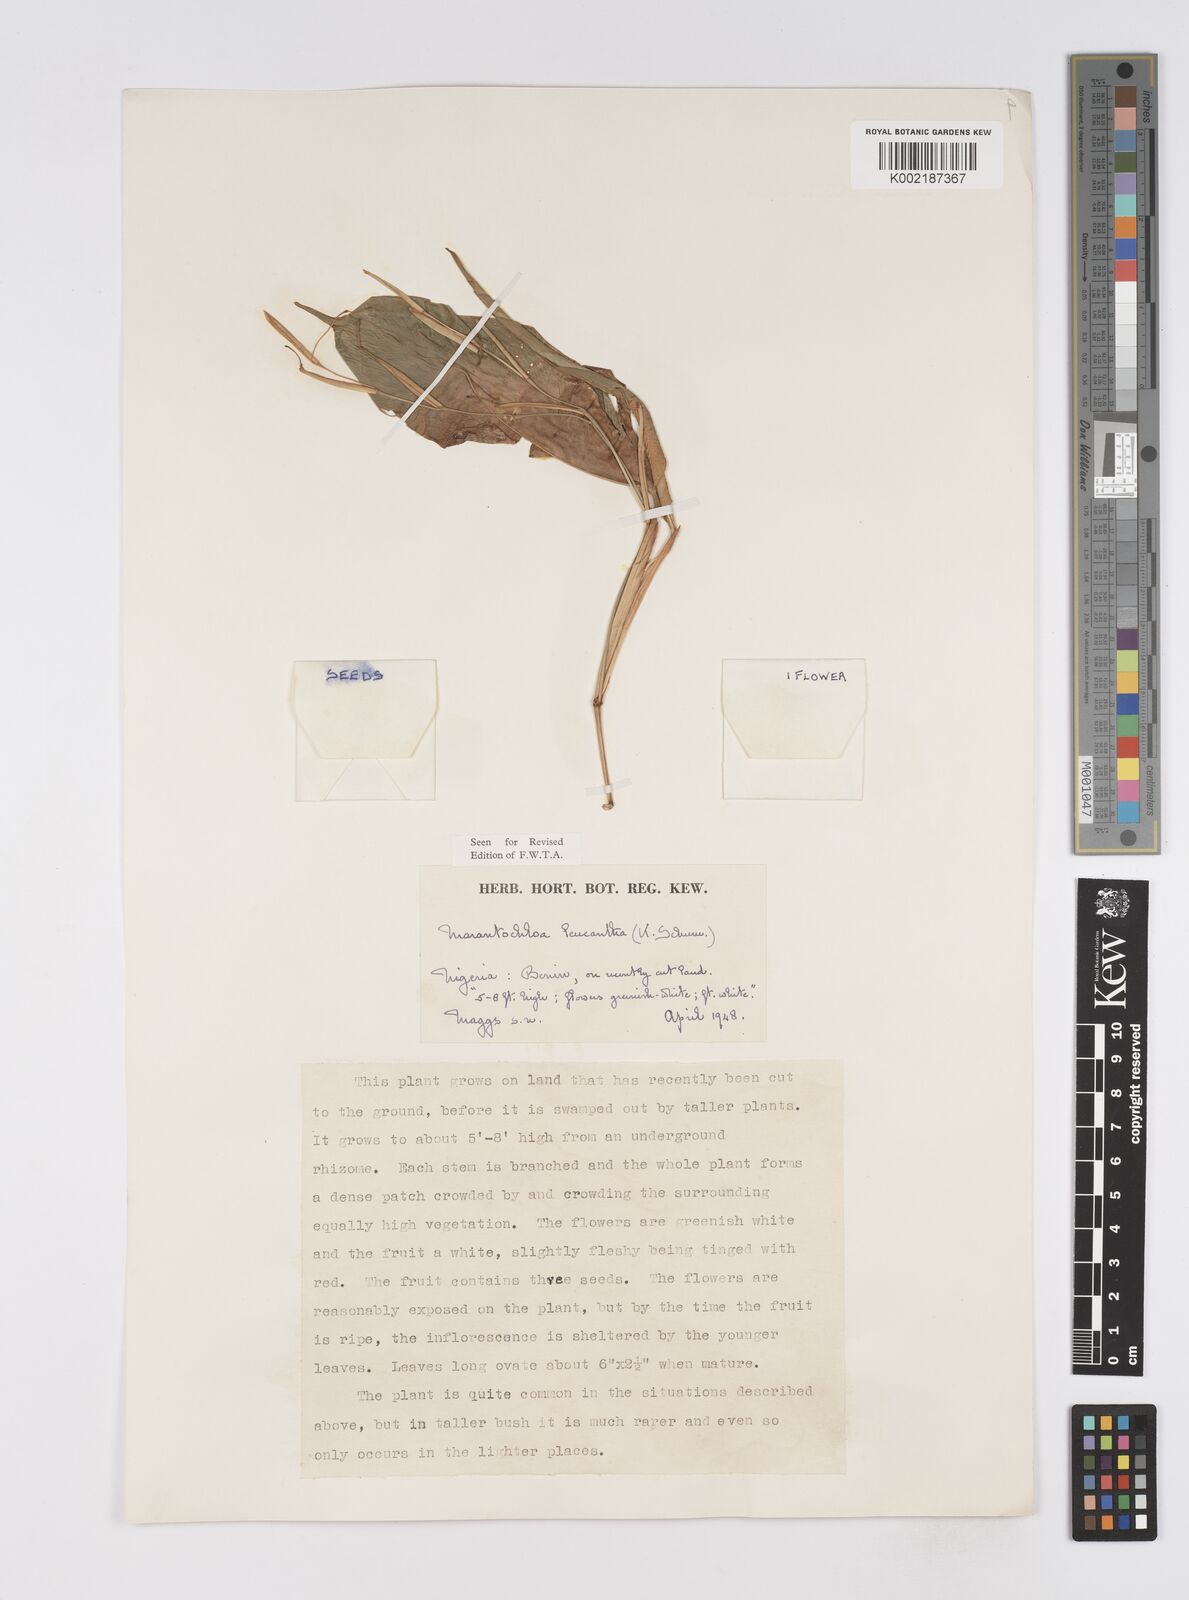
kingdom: Plantae
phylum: Tracheophyta
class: Liliopsida
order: Zingiberales
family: Marantaceae
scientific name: Marantaceae
